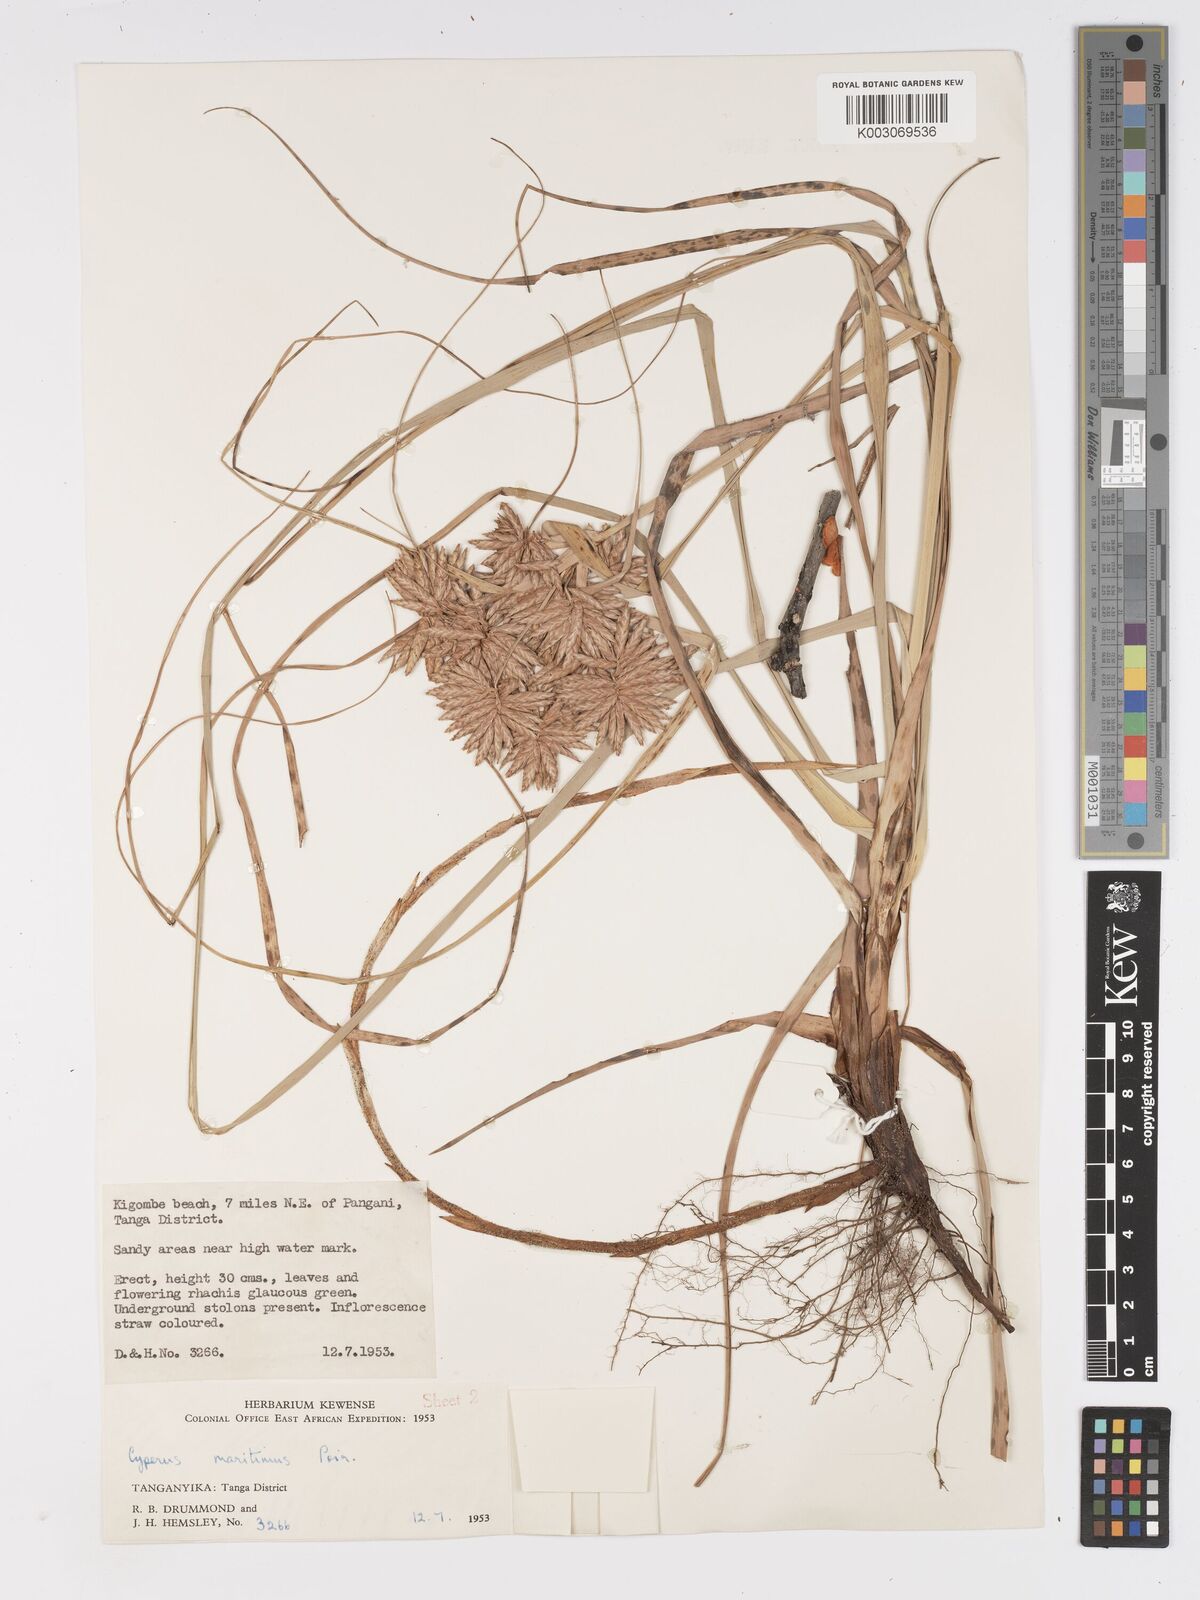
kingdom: Plantae
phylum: Tracheophyta
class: Liliopsida
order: Poales
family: Cyperaceae
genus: Cyperus
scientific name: Cyperus crassipes
